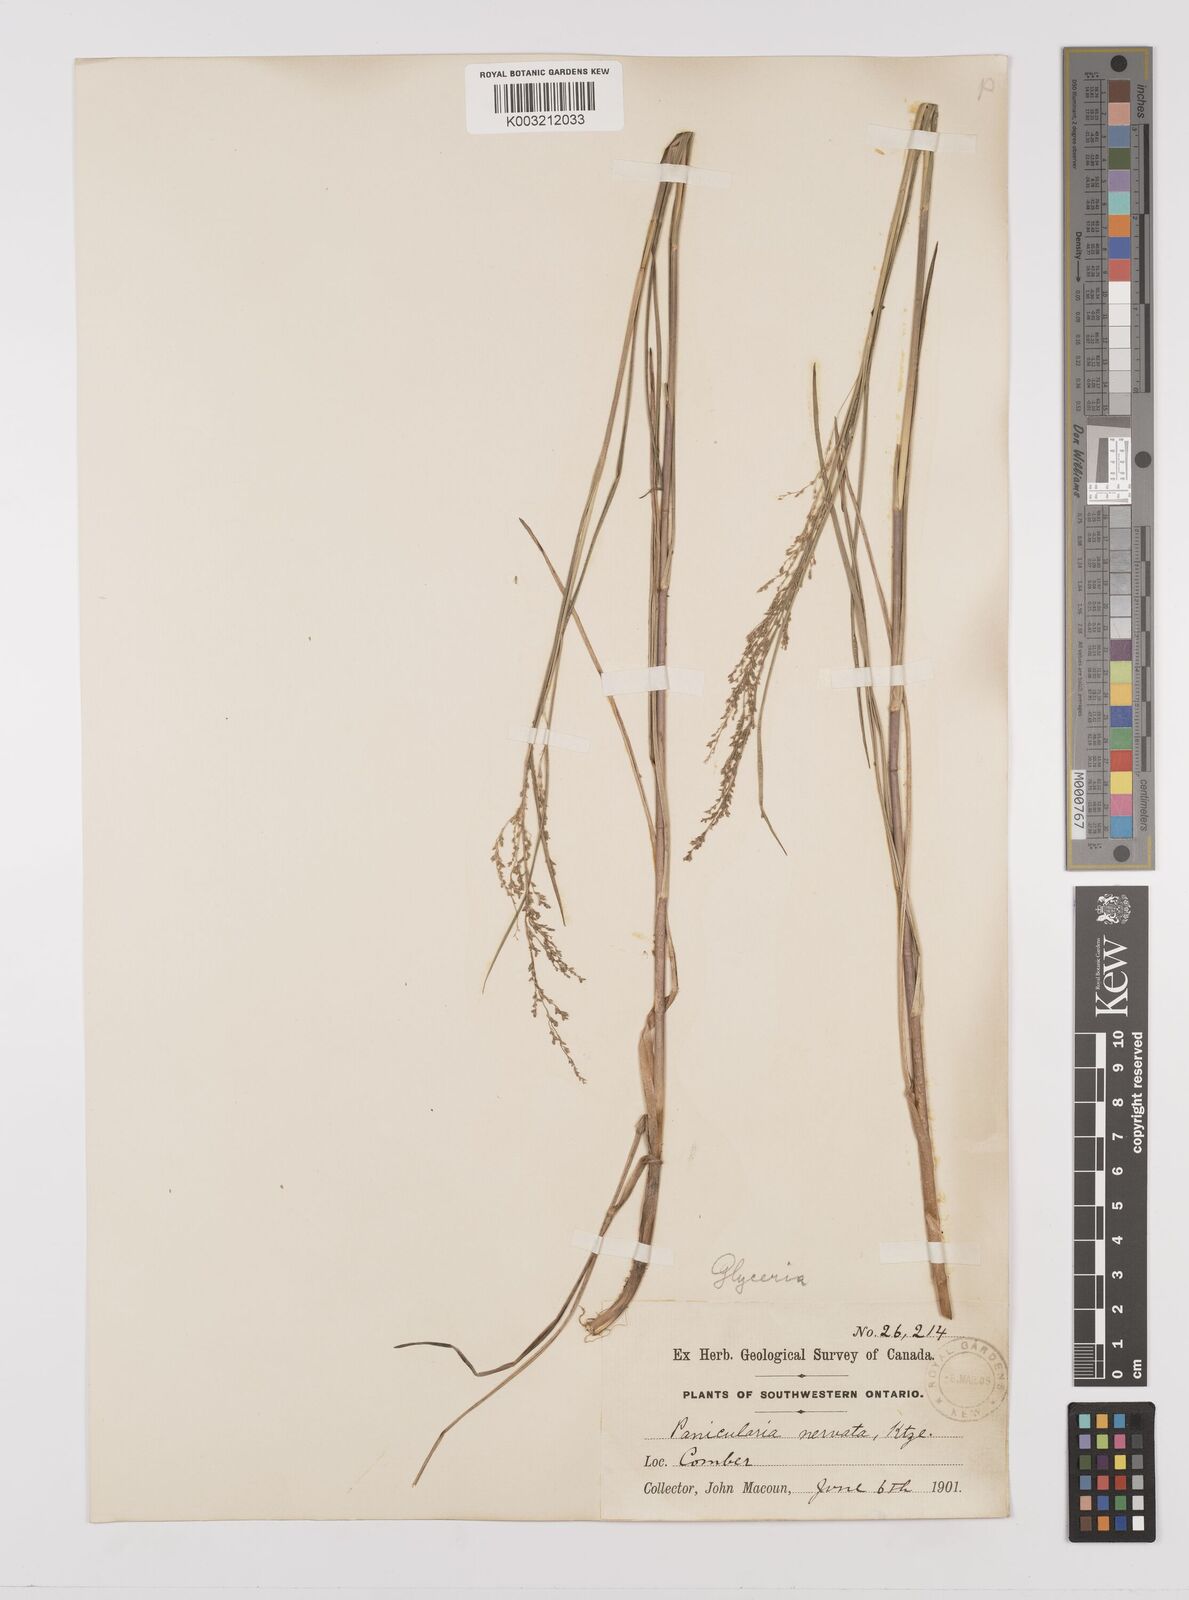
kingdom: Plantae
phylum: Tracheophyta
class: Liliopsida
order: Poales
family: Poaceae
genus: Glyceria
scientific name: Glyceria striata
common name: Fowl manna grass
